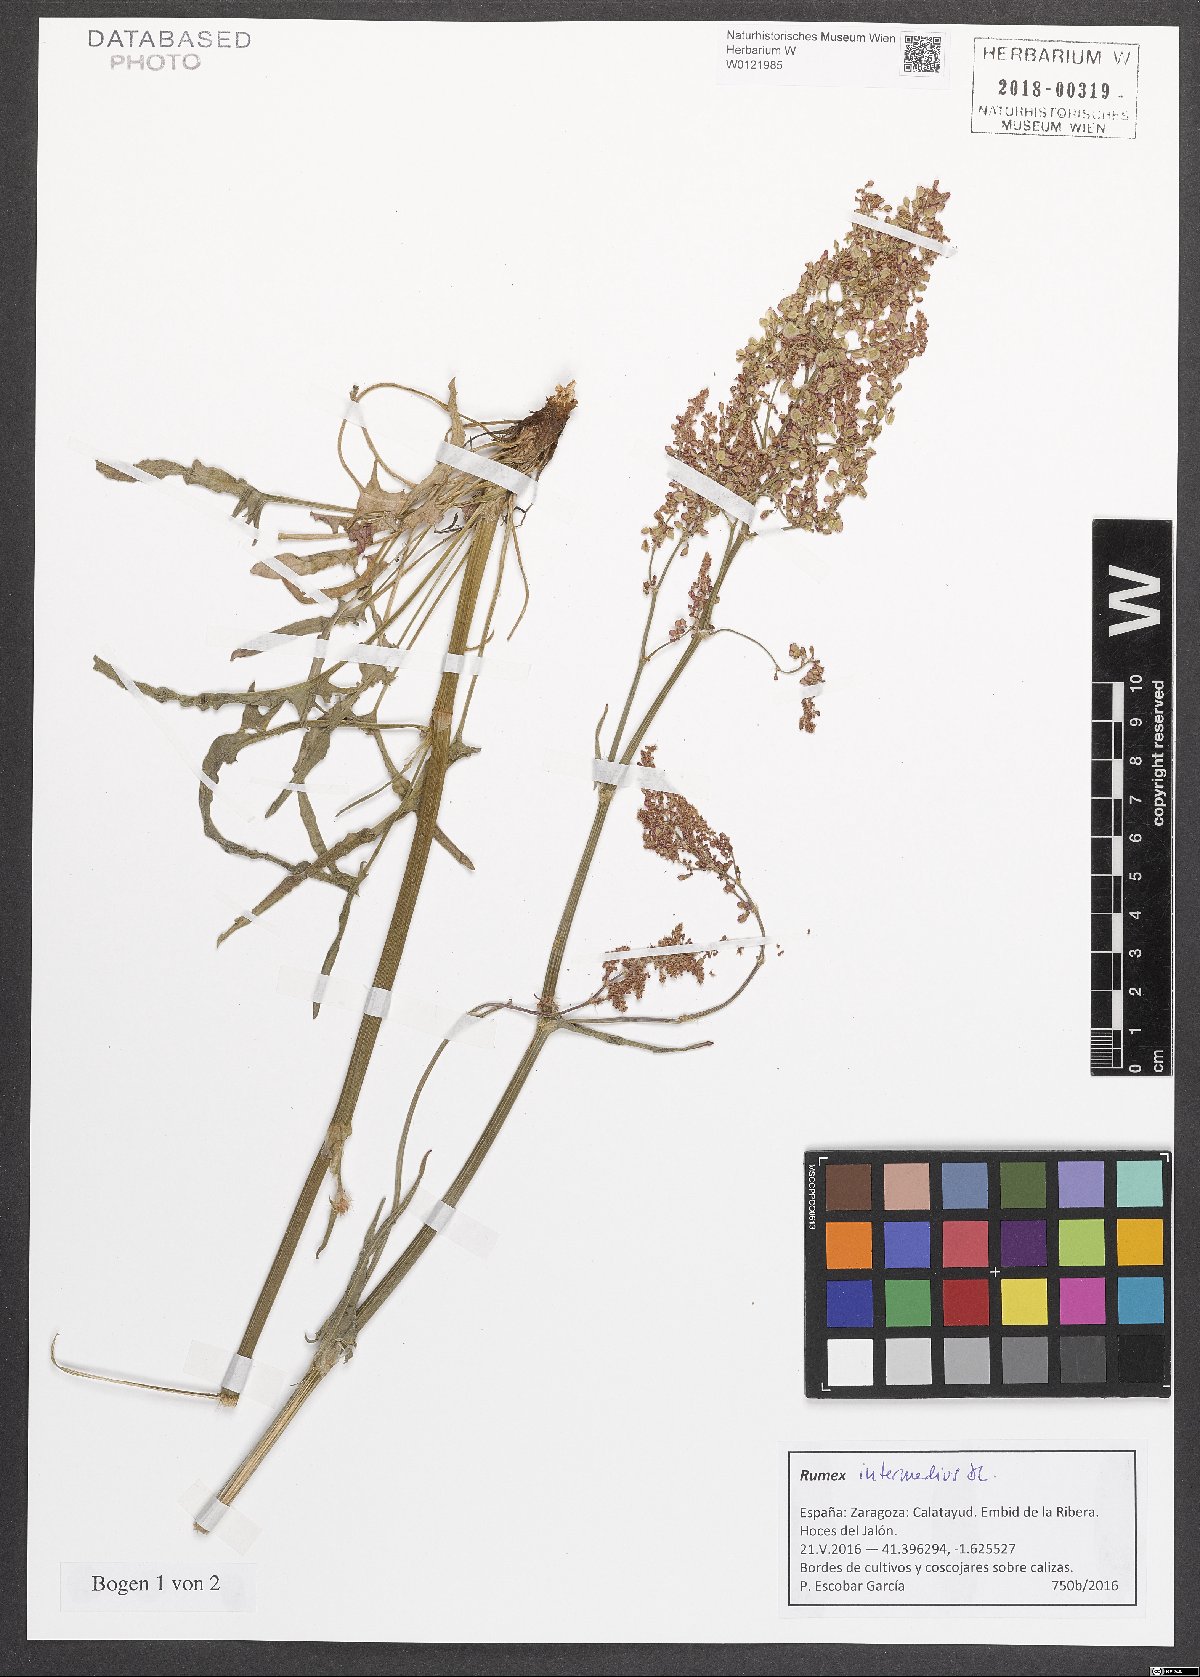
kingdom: Plantae
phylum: Tracheophyta
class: Magnoliopsida
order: Caryophyllales
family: Polygonaceae
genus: Rumex
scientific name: Rumex intermedius
